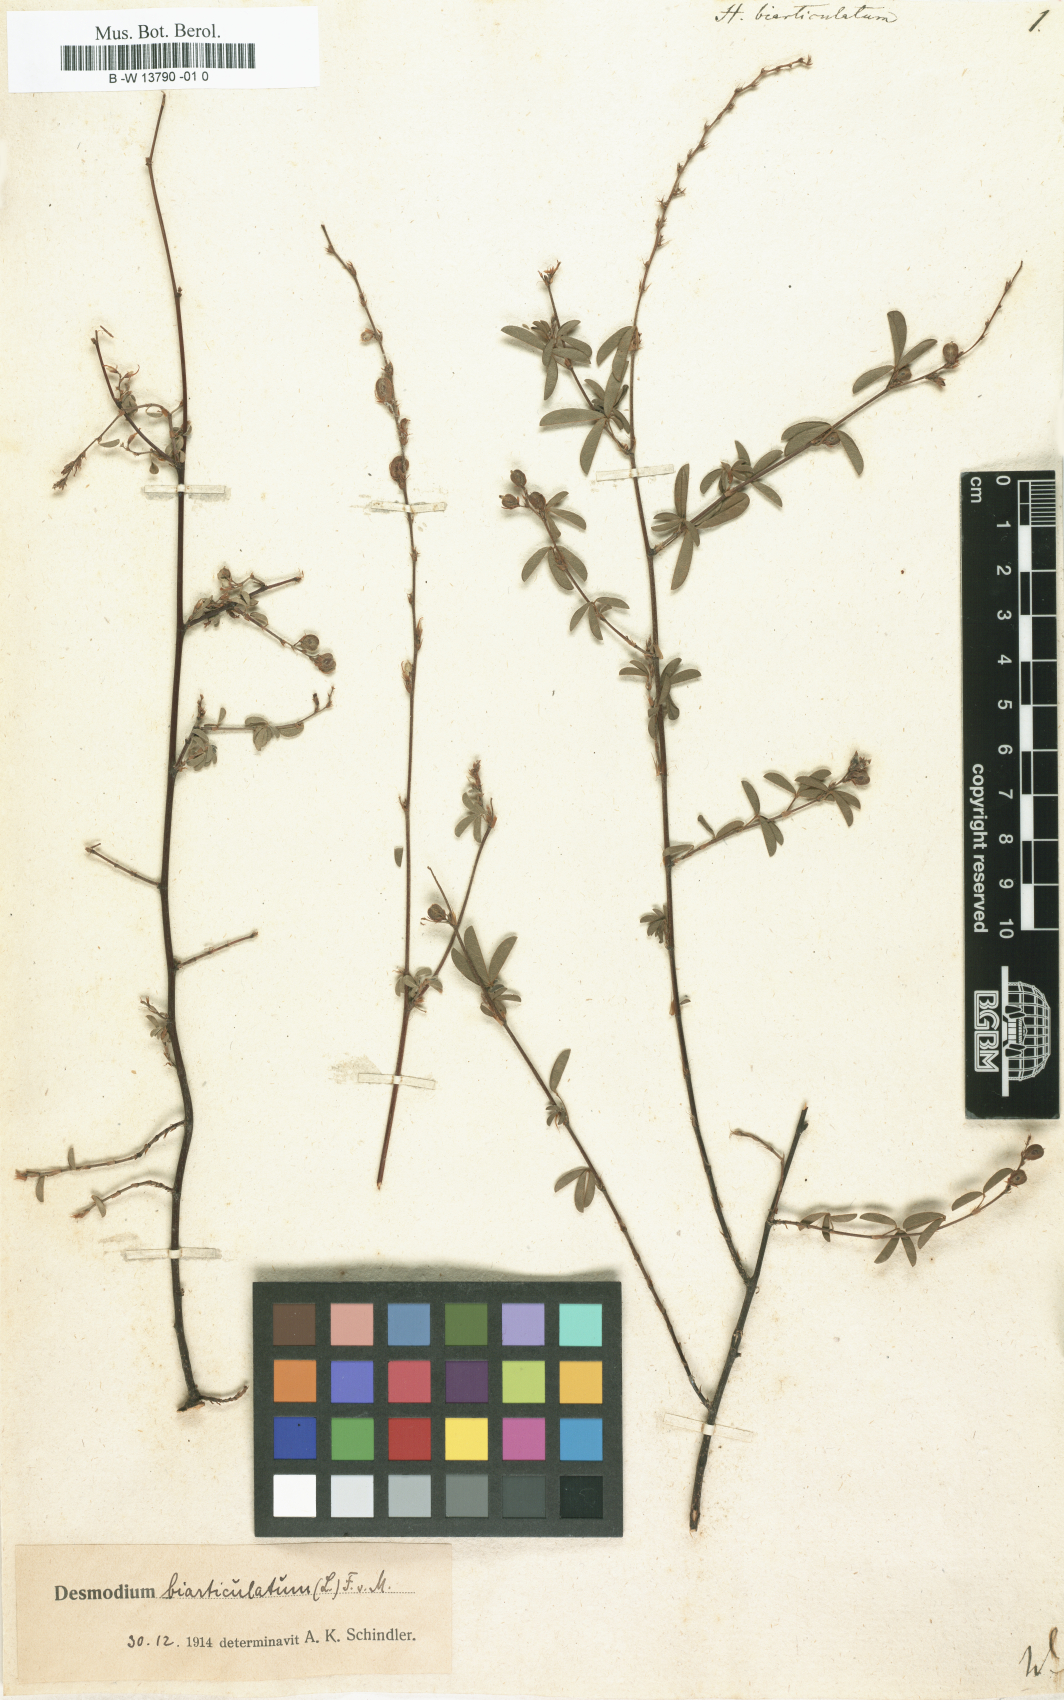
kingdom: Plantae
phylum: Tracheophyta
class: Magnoliopsida
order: Fabales
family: Fabaceae
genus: Aphyllodium
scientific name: Aphyllodium biarticulatum
